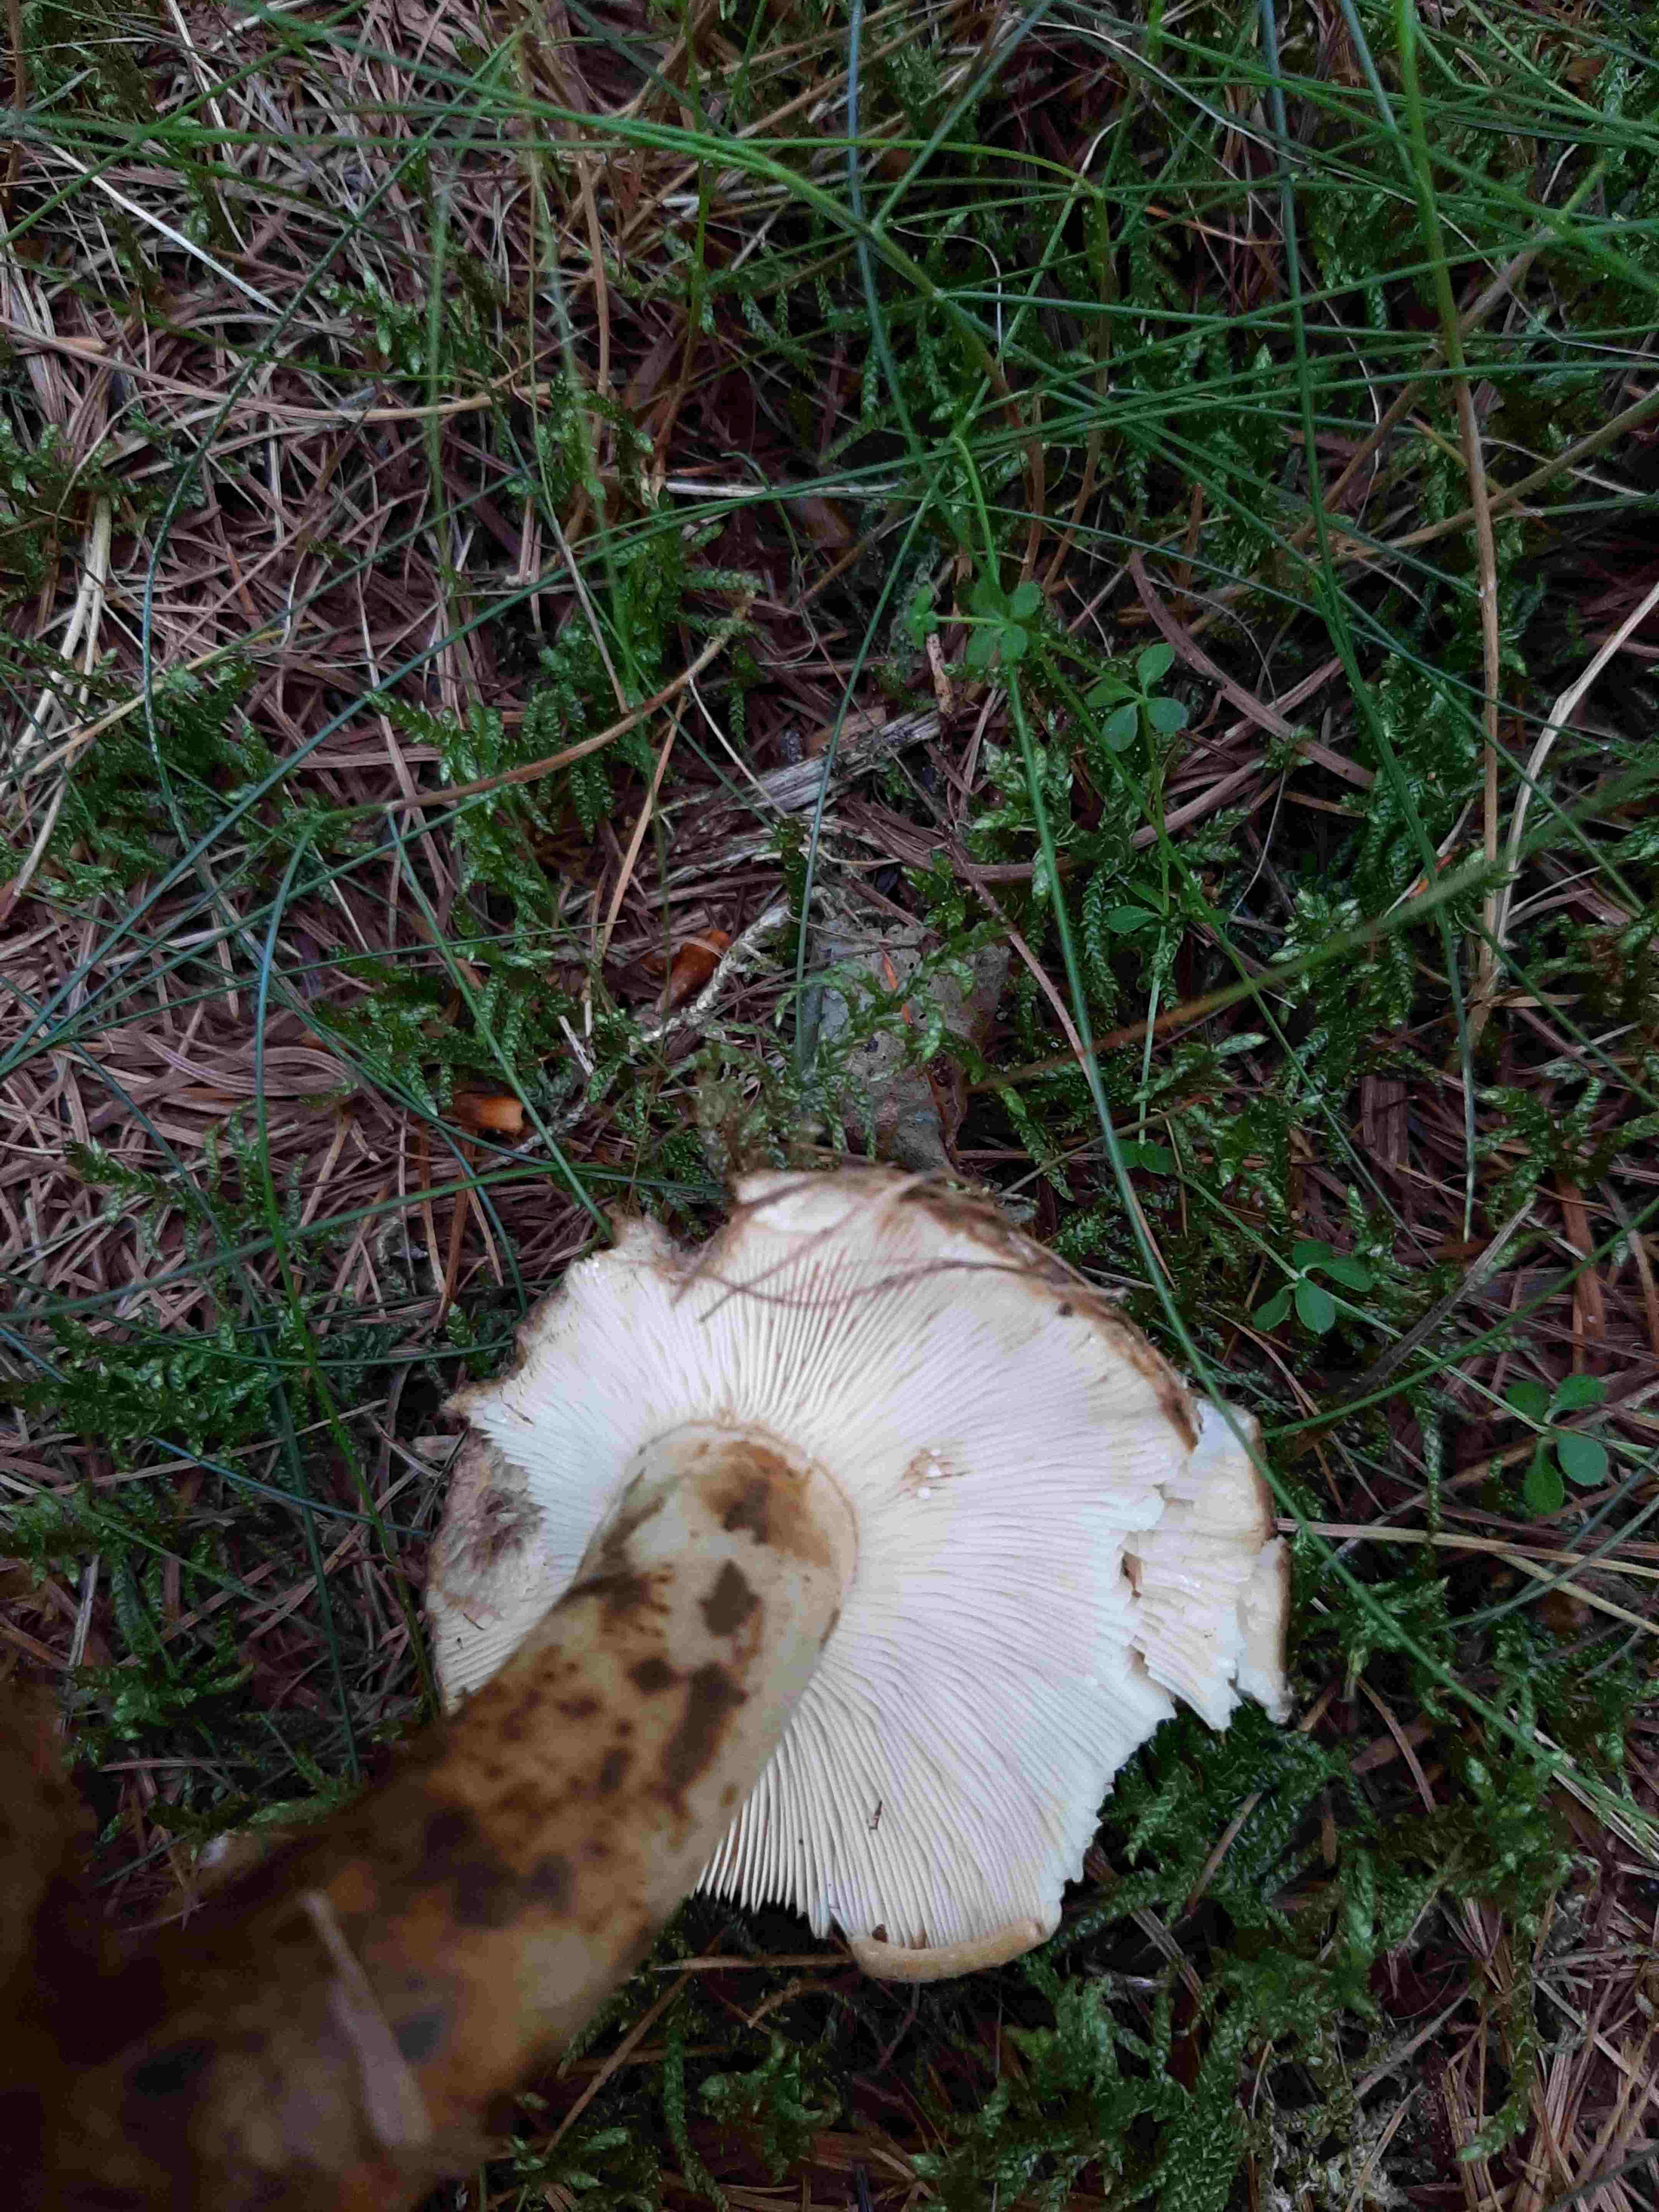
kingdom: Fungi
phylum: Basidiomycota
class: Agaricomycetes
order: Russulales
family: Russulaceae
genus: Lactarius
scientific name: Lactarius necator
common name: manddraber-mælkehat
